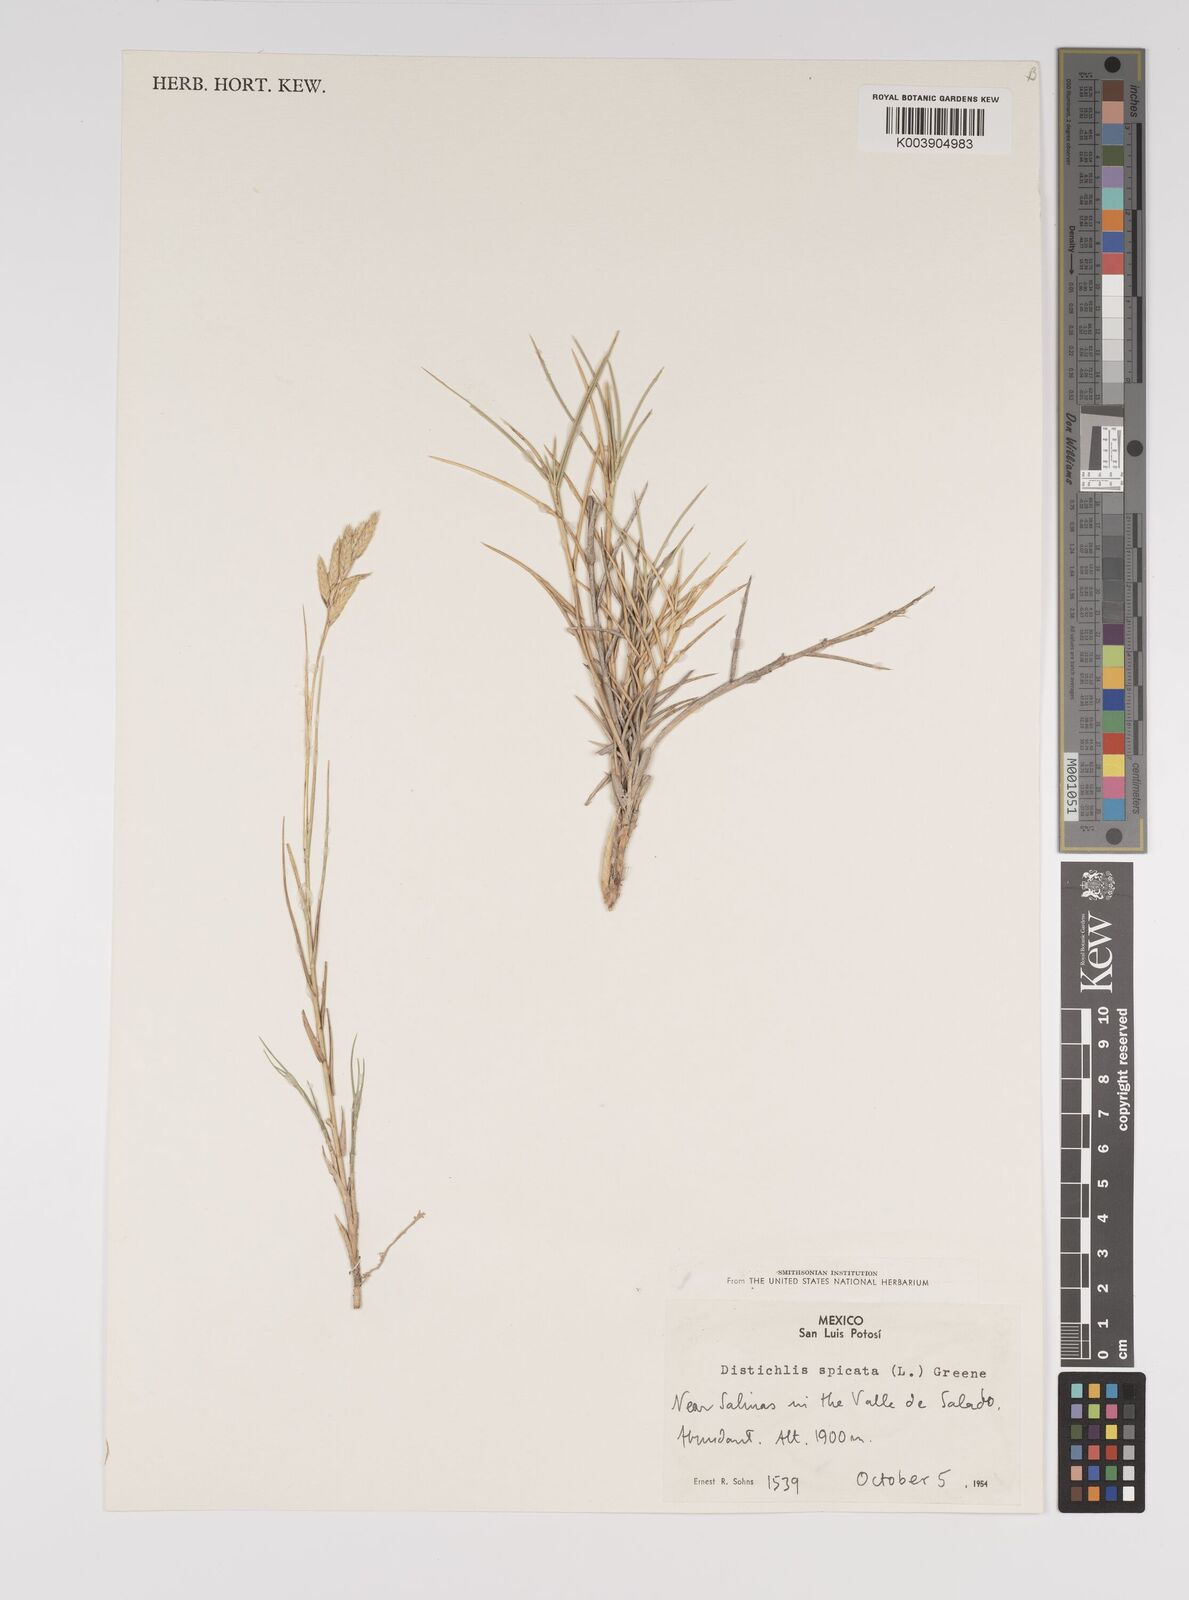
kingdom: Plantae
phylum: Tracheophyta
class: Liliopsida
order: Poales
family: Poaceae
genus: Distichlis
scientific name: Distichlis spicata
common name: Saltgrass
